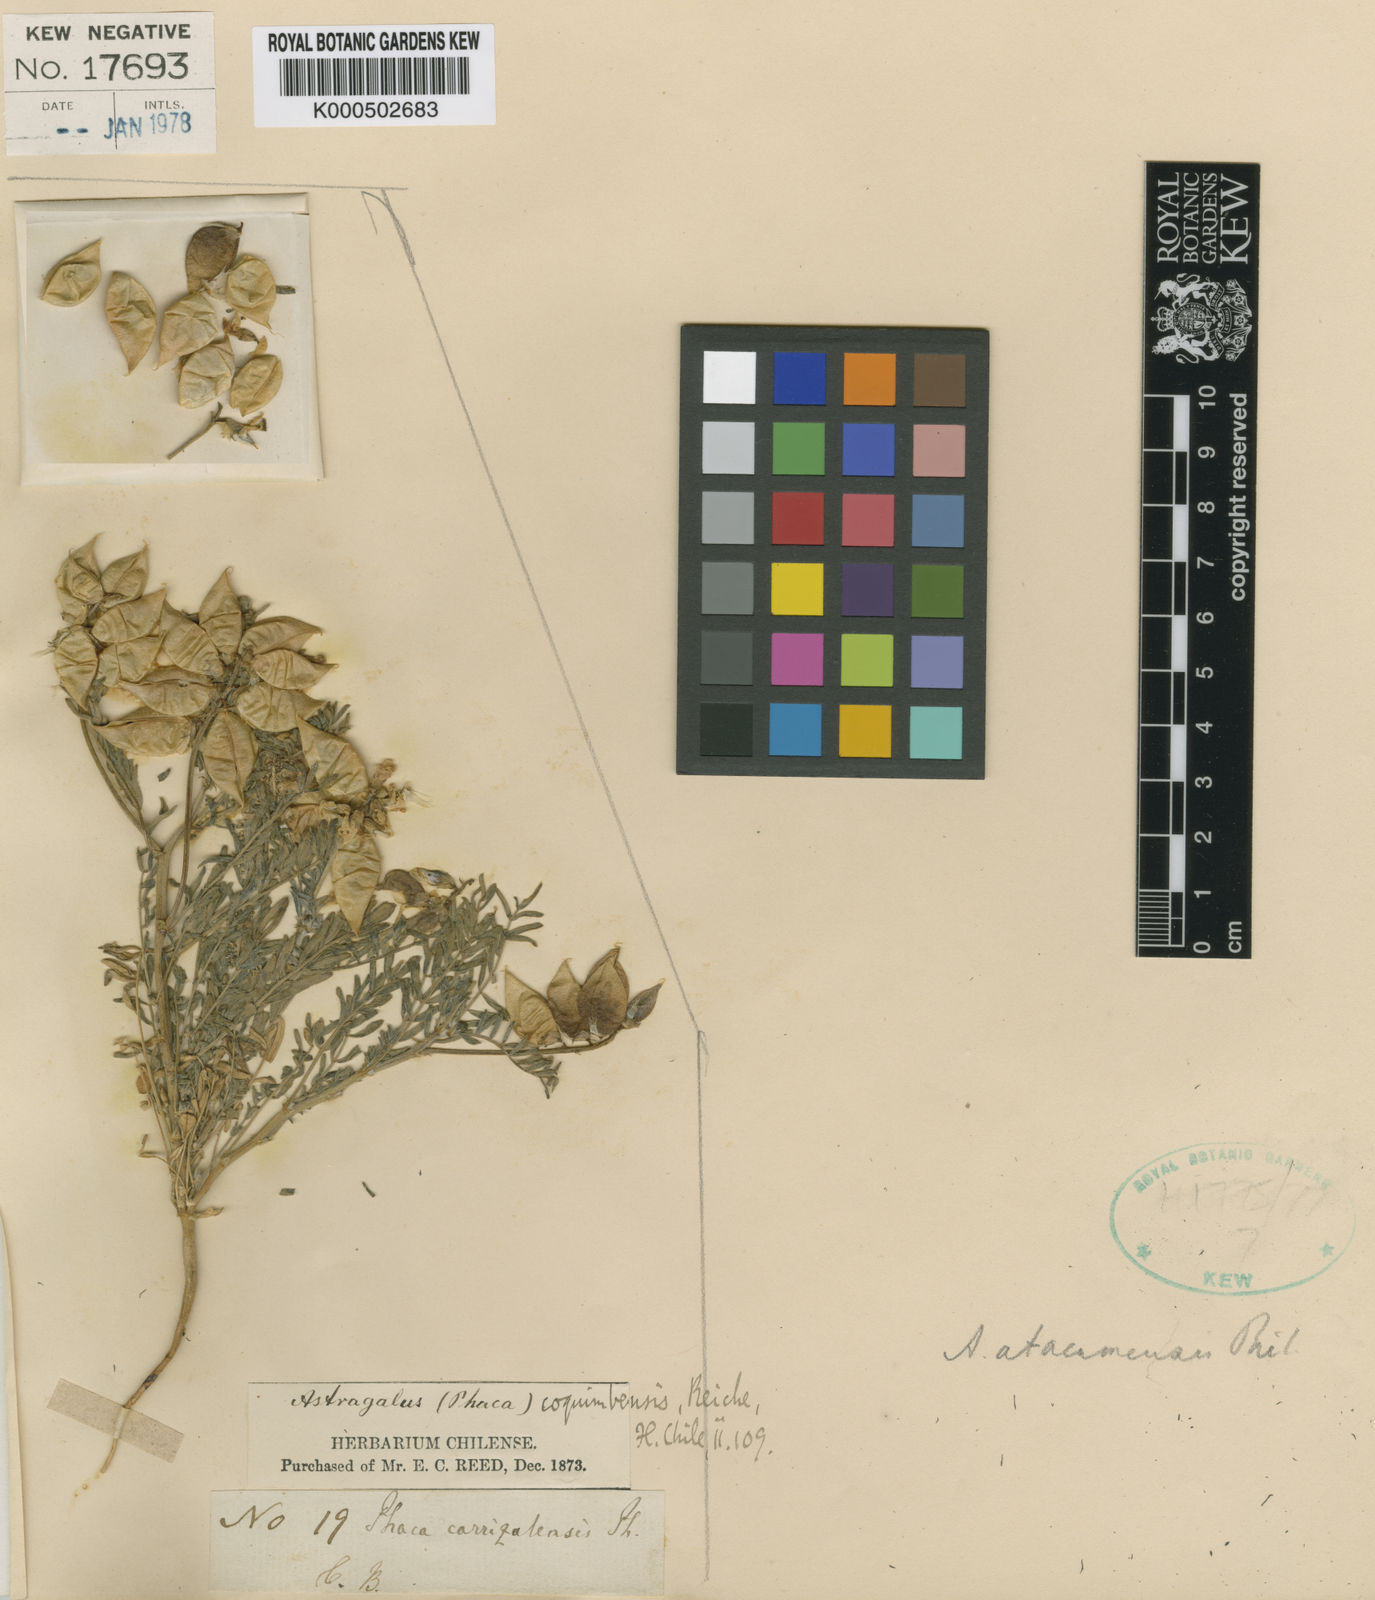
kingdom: Plantae
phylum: Tracheophyta
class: Magnoliopsida
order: Fabales
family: Fabaceae
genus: Astragalus
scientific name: Astragalus
